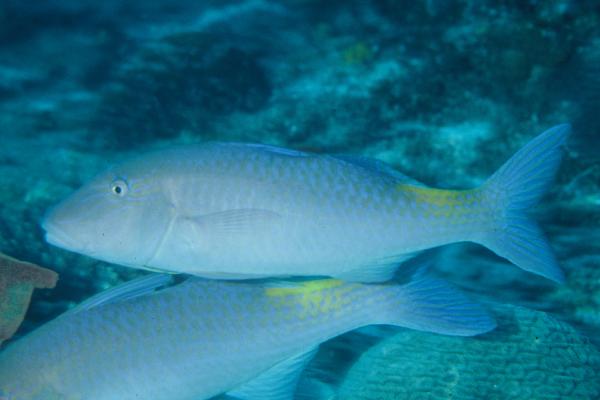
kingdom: Animalia
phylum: Chordata
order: Perciformes
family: Mullidae
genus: Parupeneus
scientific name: Parupeneus cyclostomus
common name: Goldsaddle goatfish
